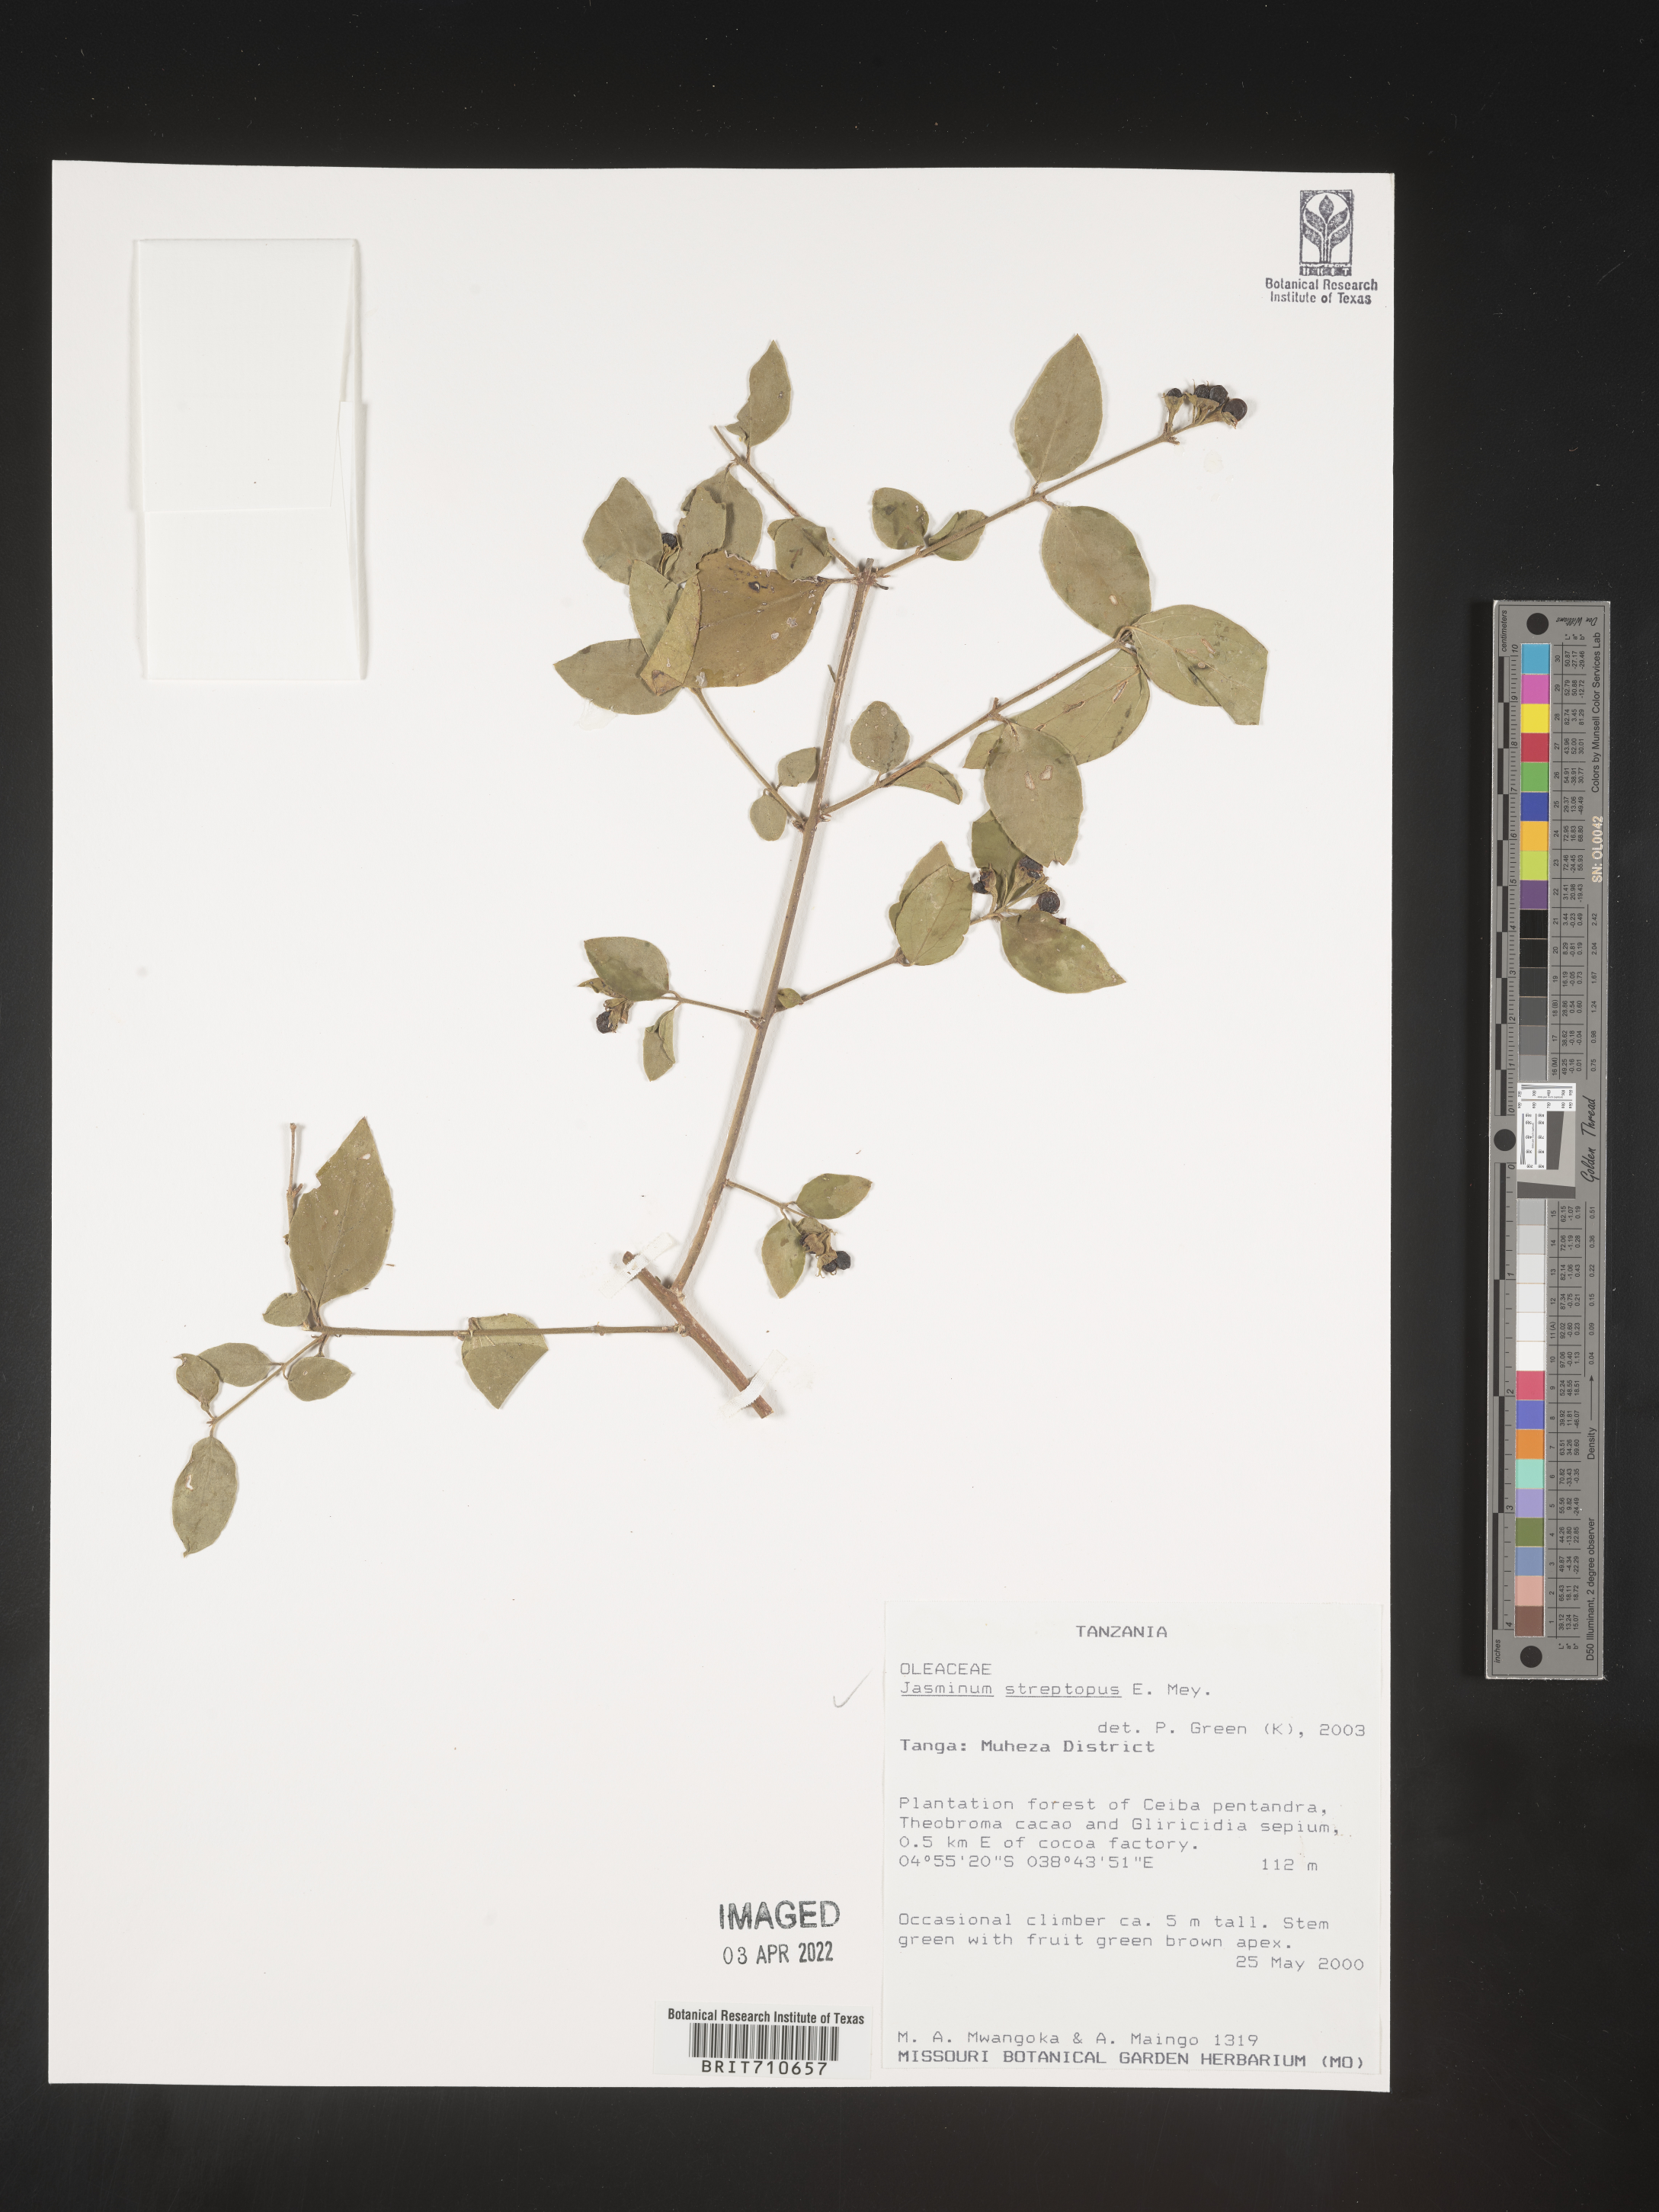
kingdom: Plantae
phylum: Tracheophyta
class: Magnoliopsida
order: Lamiales
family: Oleaceae
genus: Jasminum
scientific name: Jasminum
